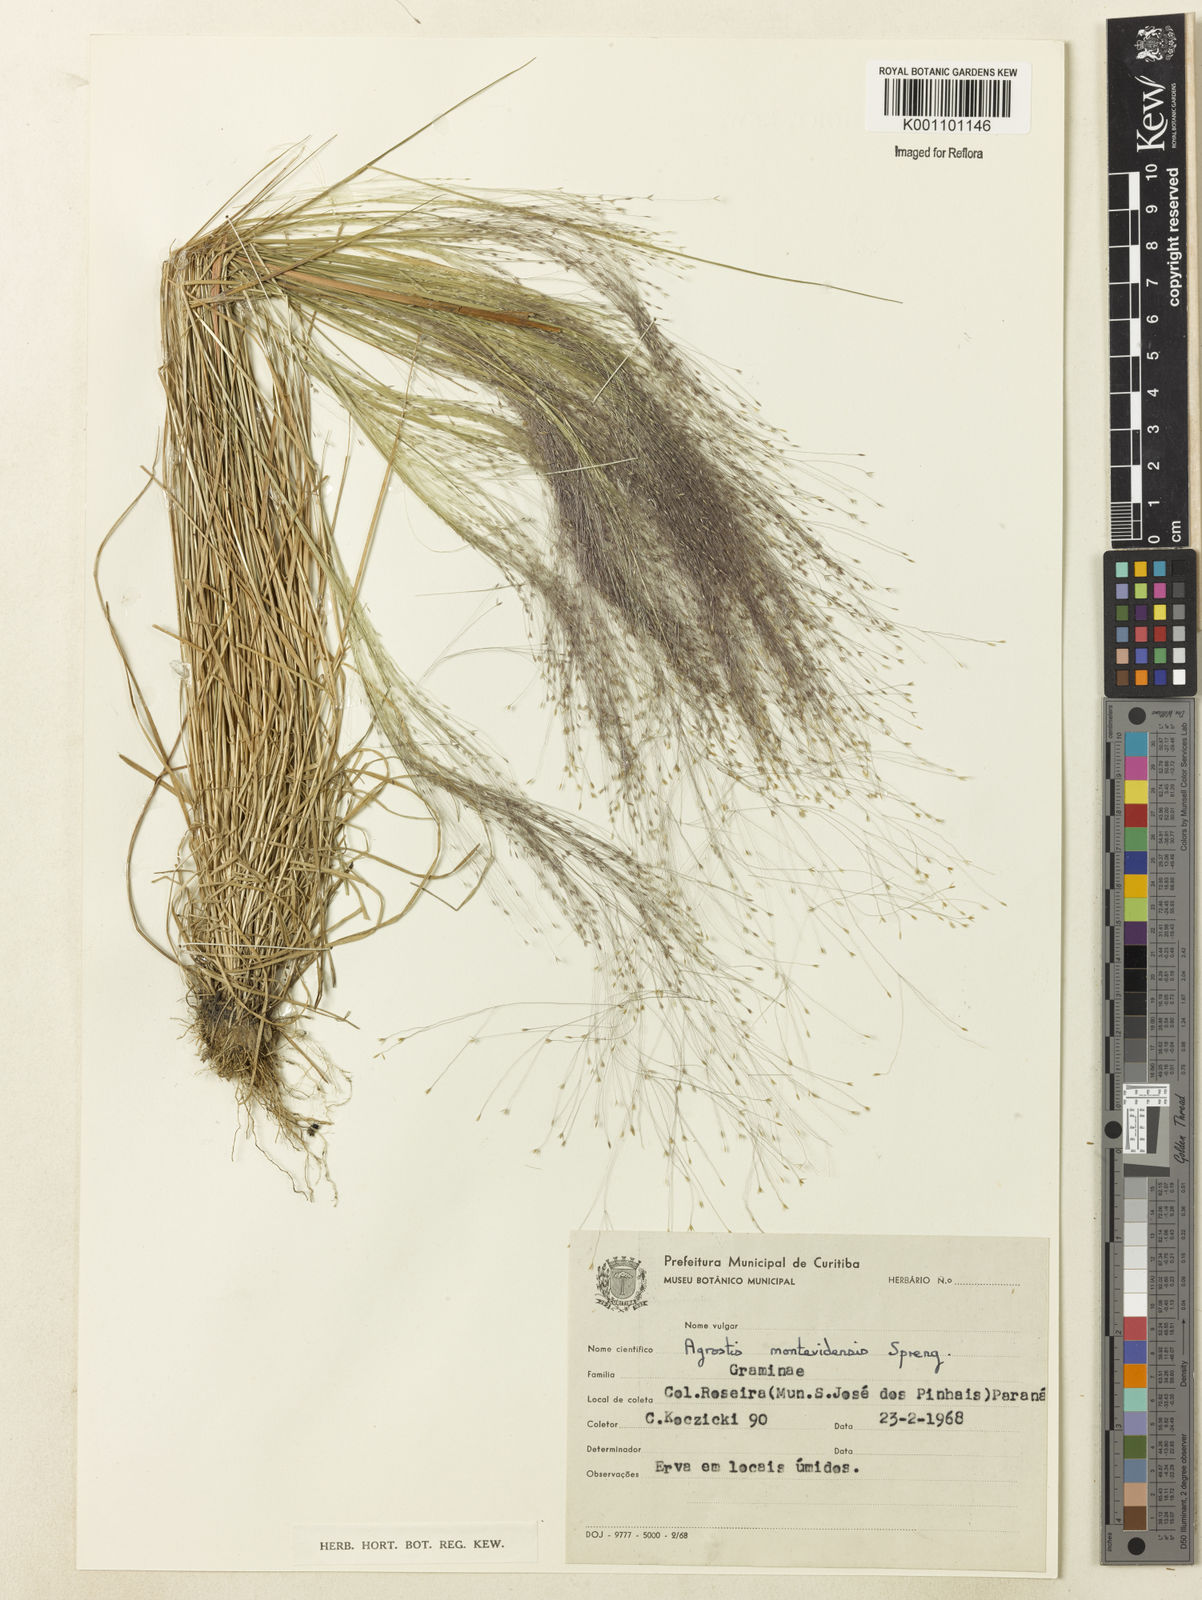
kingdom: Plantae
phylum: Tracheophyta
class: Liliopsida
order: Poales
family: Poaceae
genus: Agrostis
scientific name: Agrostis montevidensis
